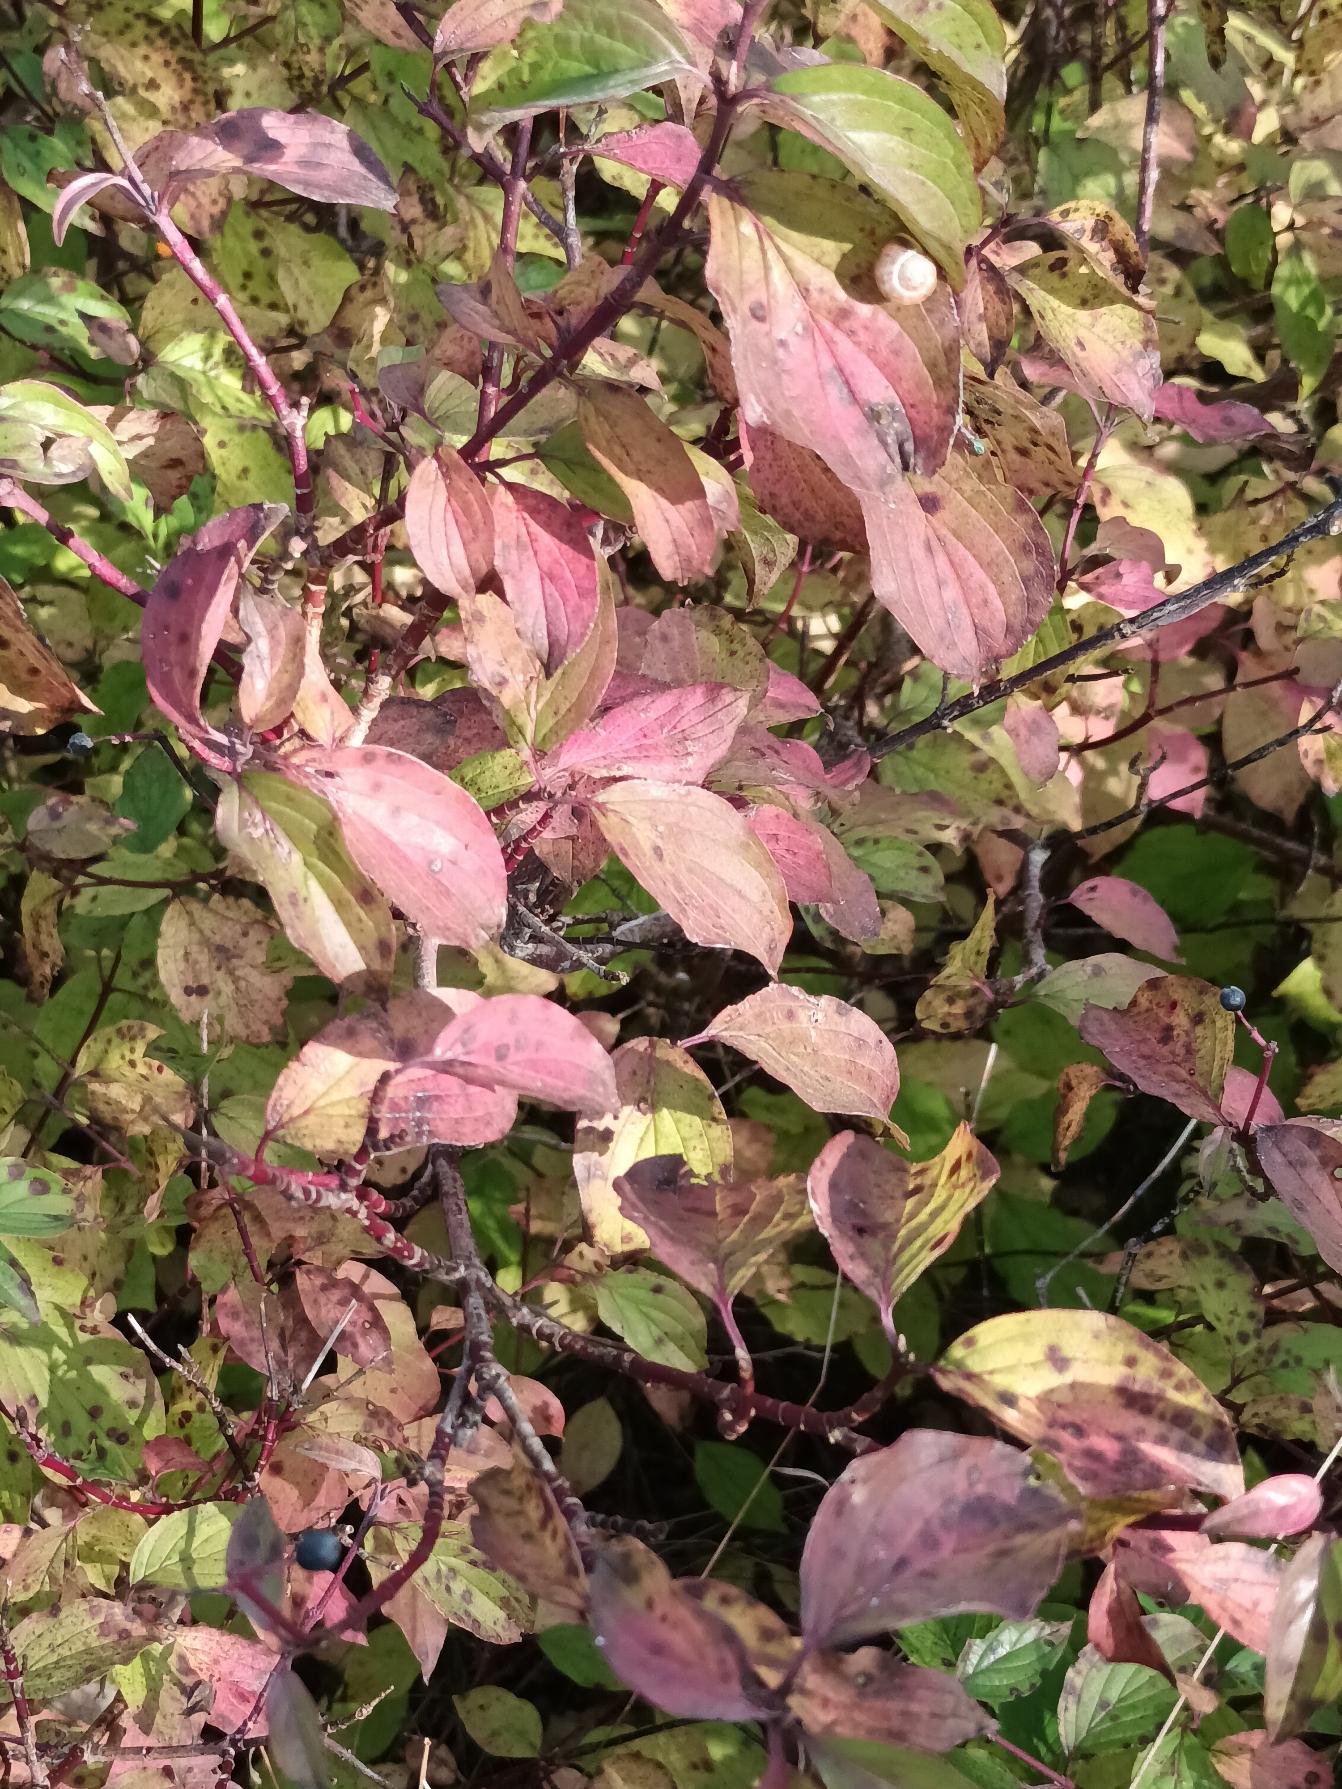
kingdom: Plantae
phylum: Tracheophyta
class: Magnoliopsida
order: Cornales
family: Cornaceae
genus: Cornus
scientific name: Cornus sanguinea
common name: Rød kornel
